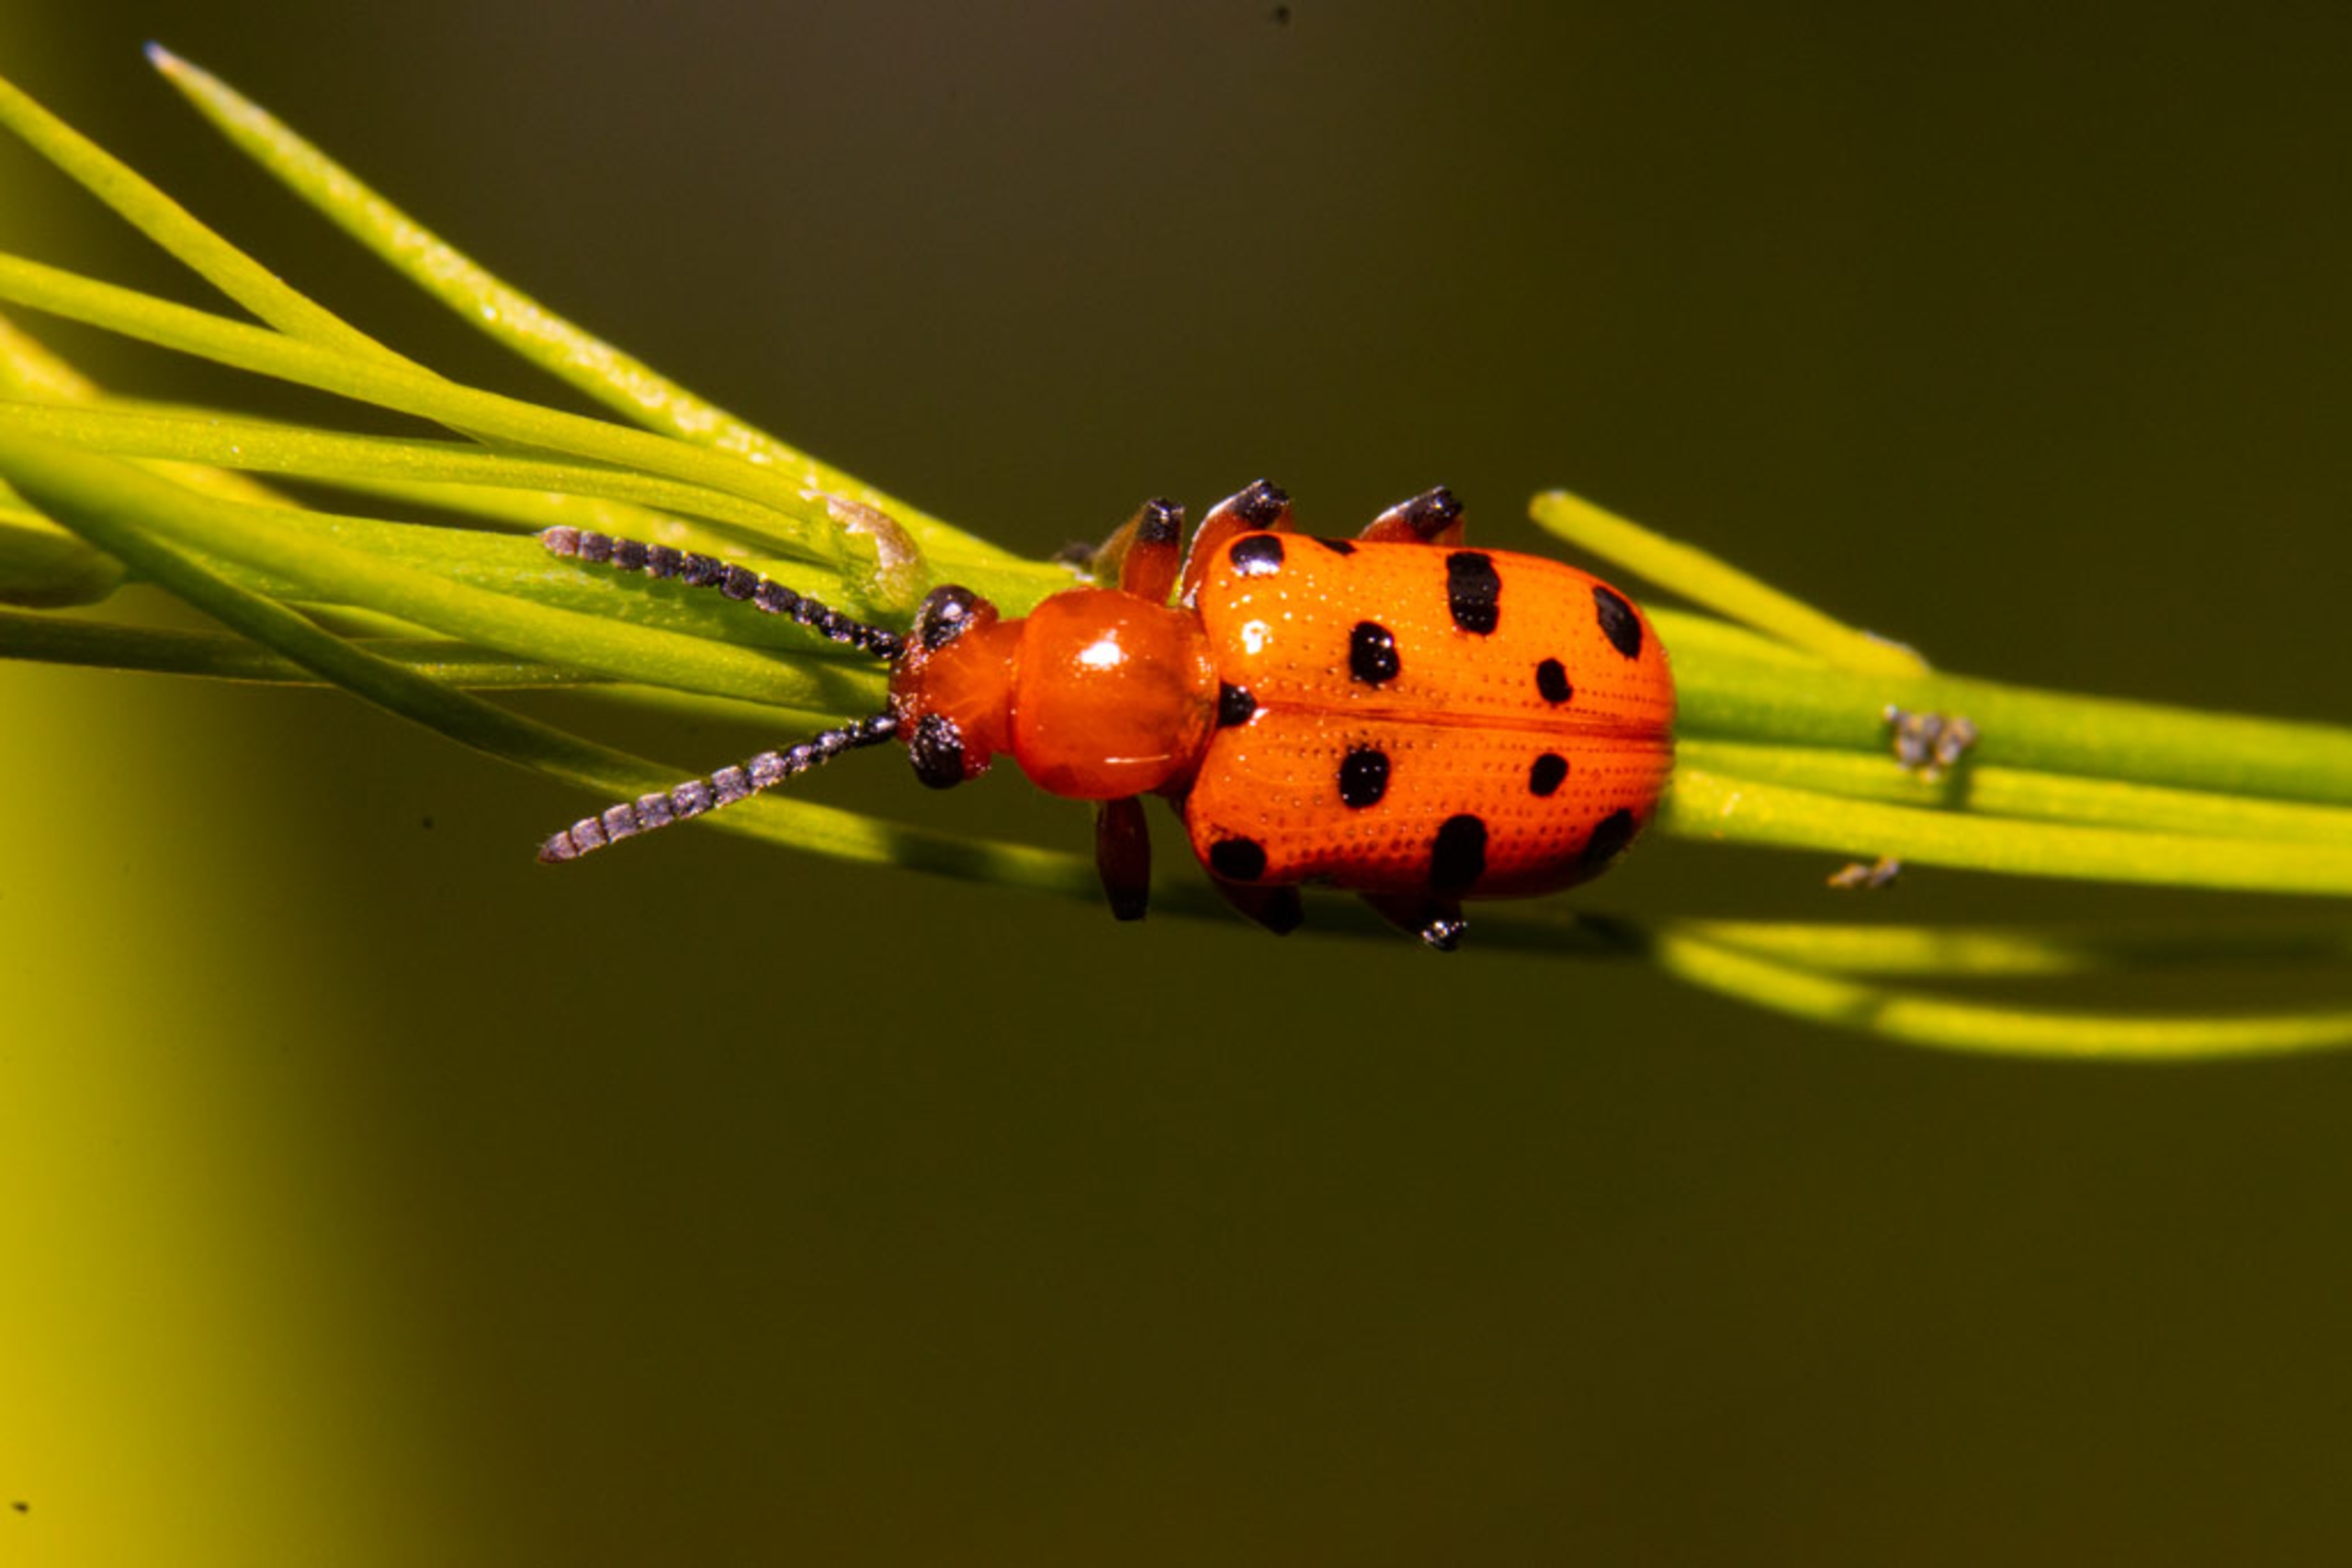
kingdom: Animalia
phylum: Arthropoda
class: Insecta
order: Coleoptera
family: Chrysomelidae
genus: Crioceris
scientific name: Crioceris duodecimpunctata
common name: Tolvplettet aspargesbille
